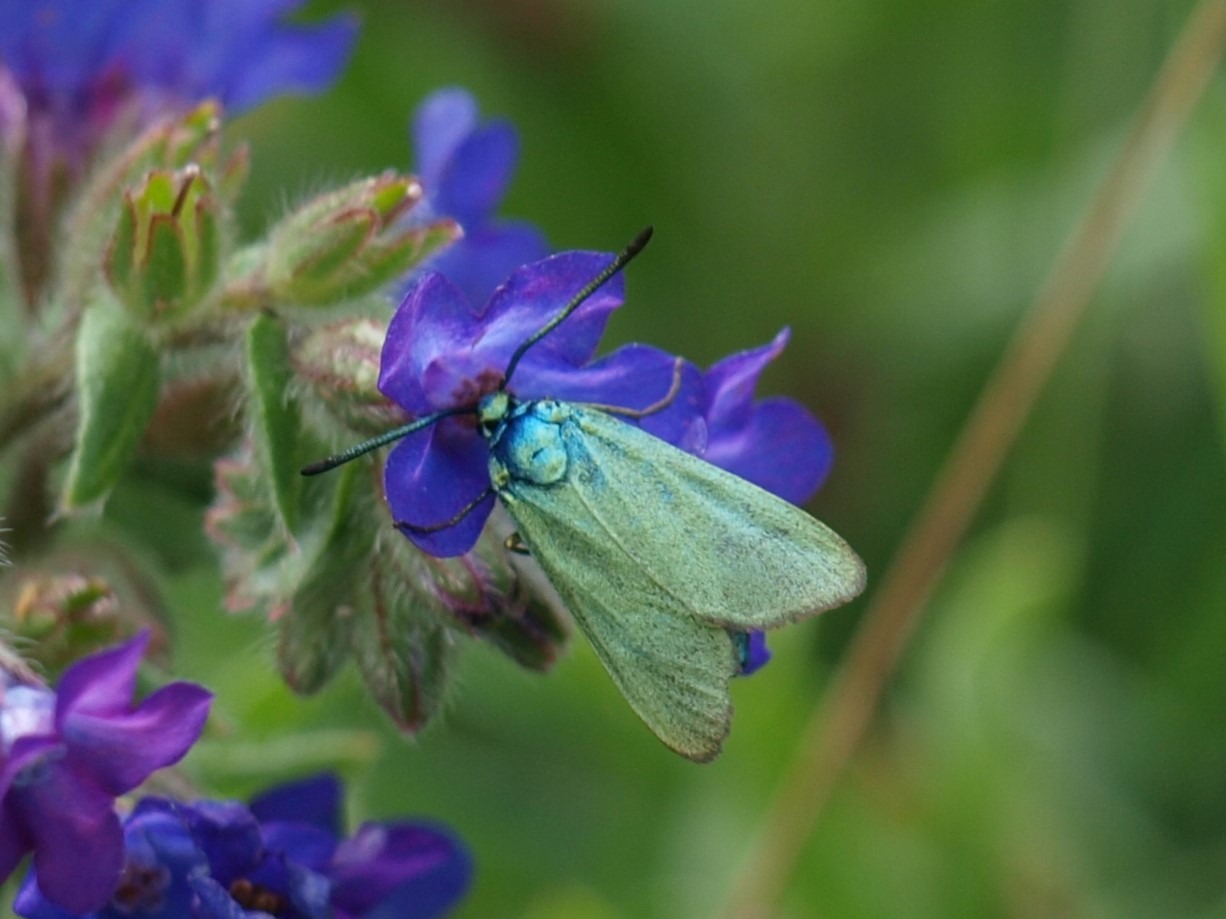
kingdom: Animalia
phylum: Arthropoda
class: Insecta
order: Lepidoptera
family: Zygaenidae
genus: Adscita
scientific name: Adscita statices
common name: Metalvinge
